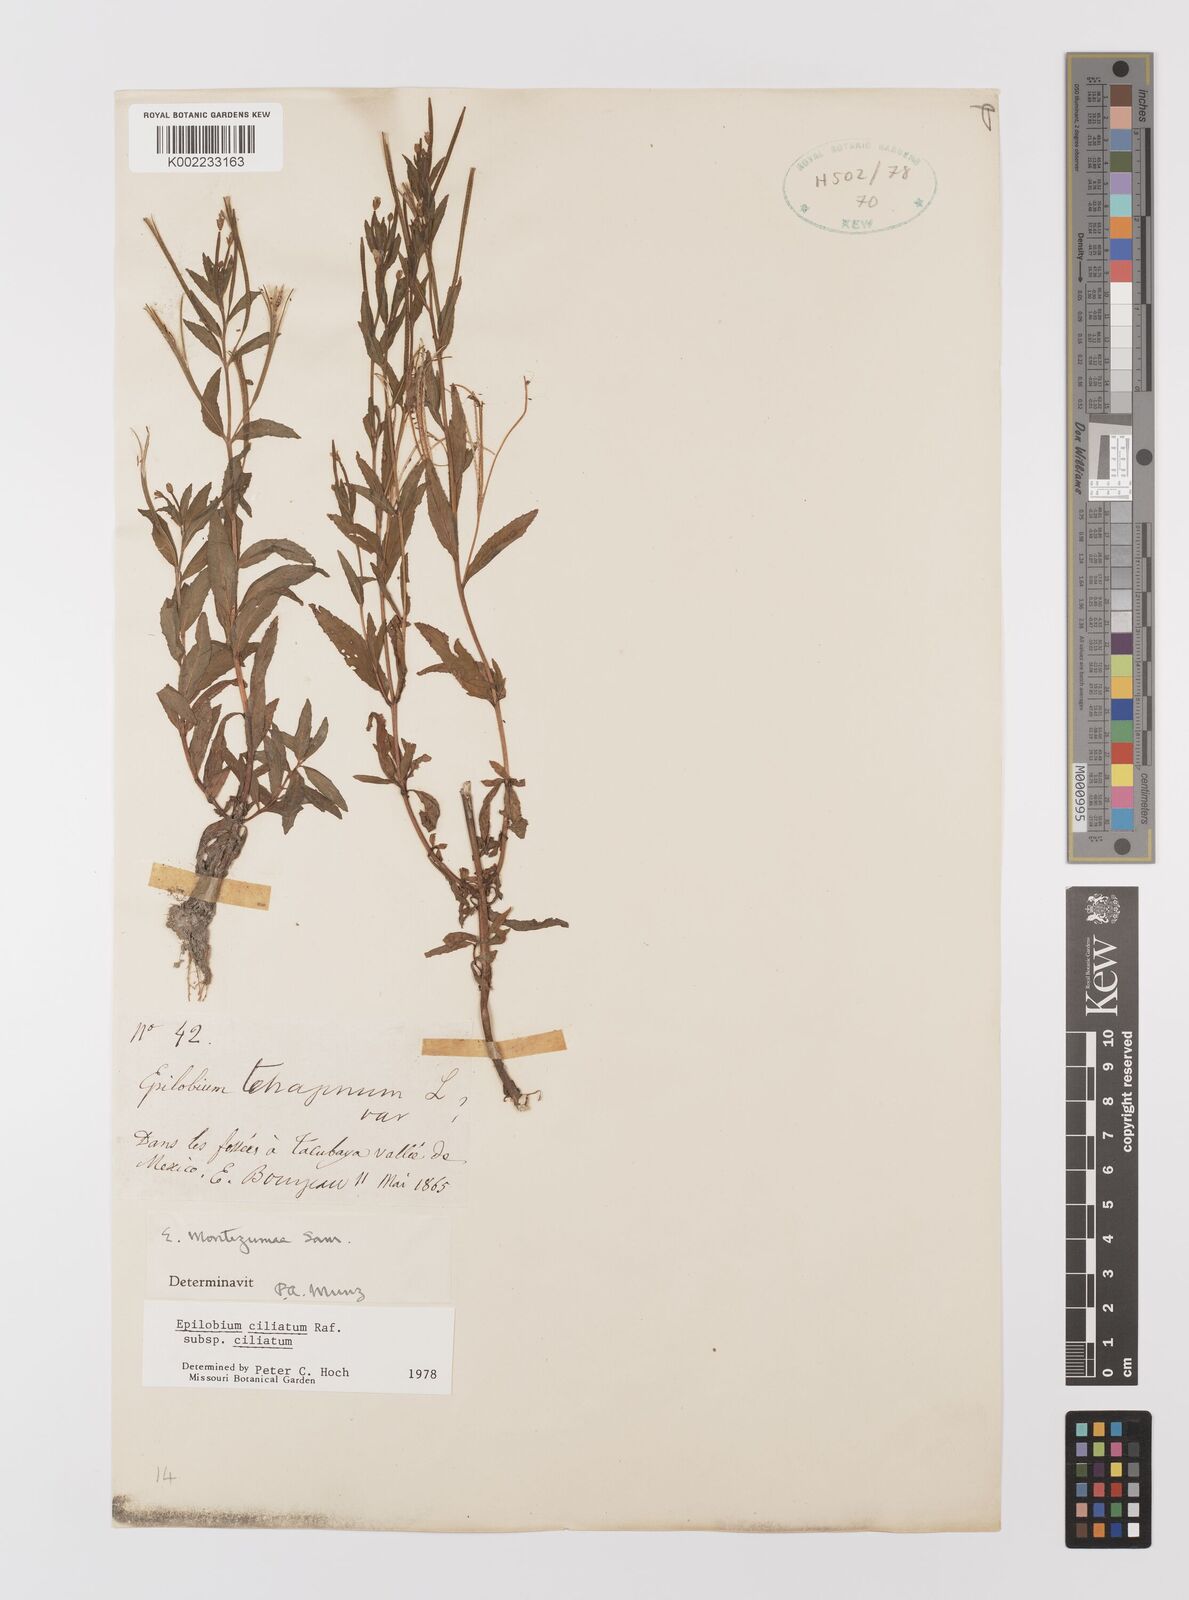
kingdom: Plantae
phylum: Tracheophyta
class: Magnoliopsida
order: Myrtales
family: Onagraceae
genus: Epilobium
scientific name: Epilobium ciliatum
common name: American willowherb
